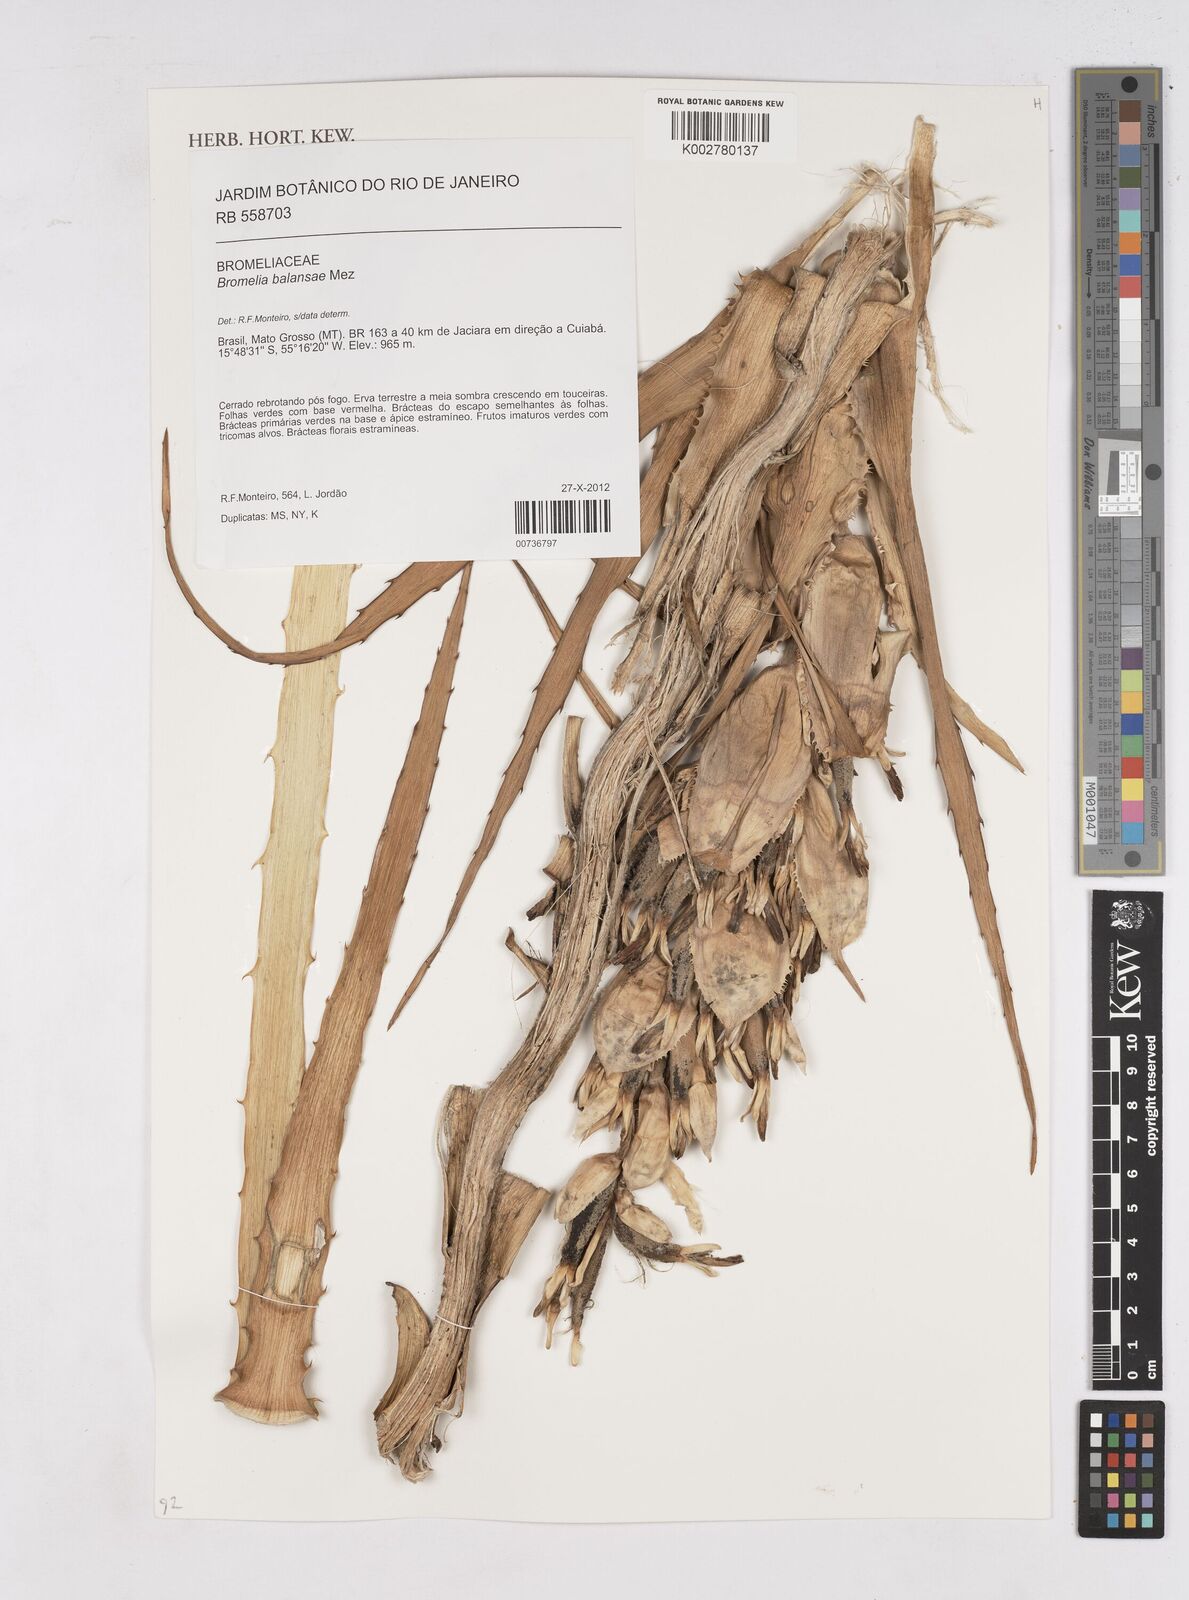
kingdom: Plantae
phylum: Tracheophyta
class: Liliopsida
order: Poales
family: Bromeliaceae
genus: Bromelia
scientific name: Bromelia balansae
